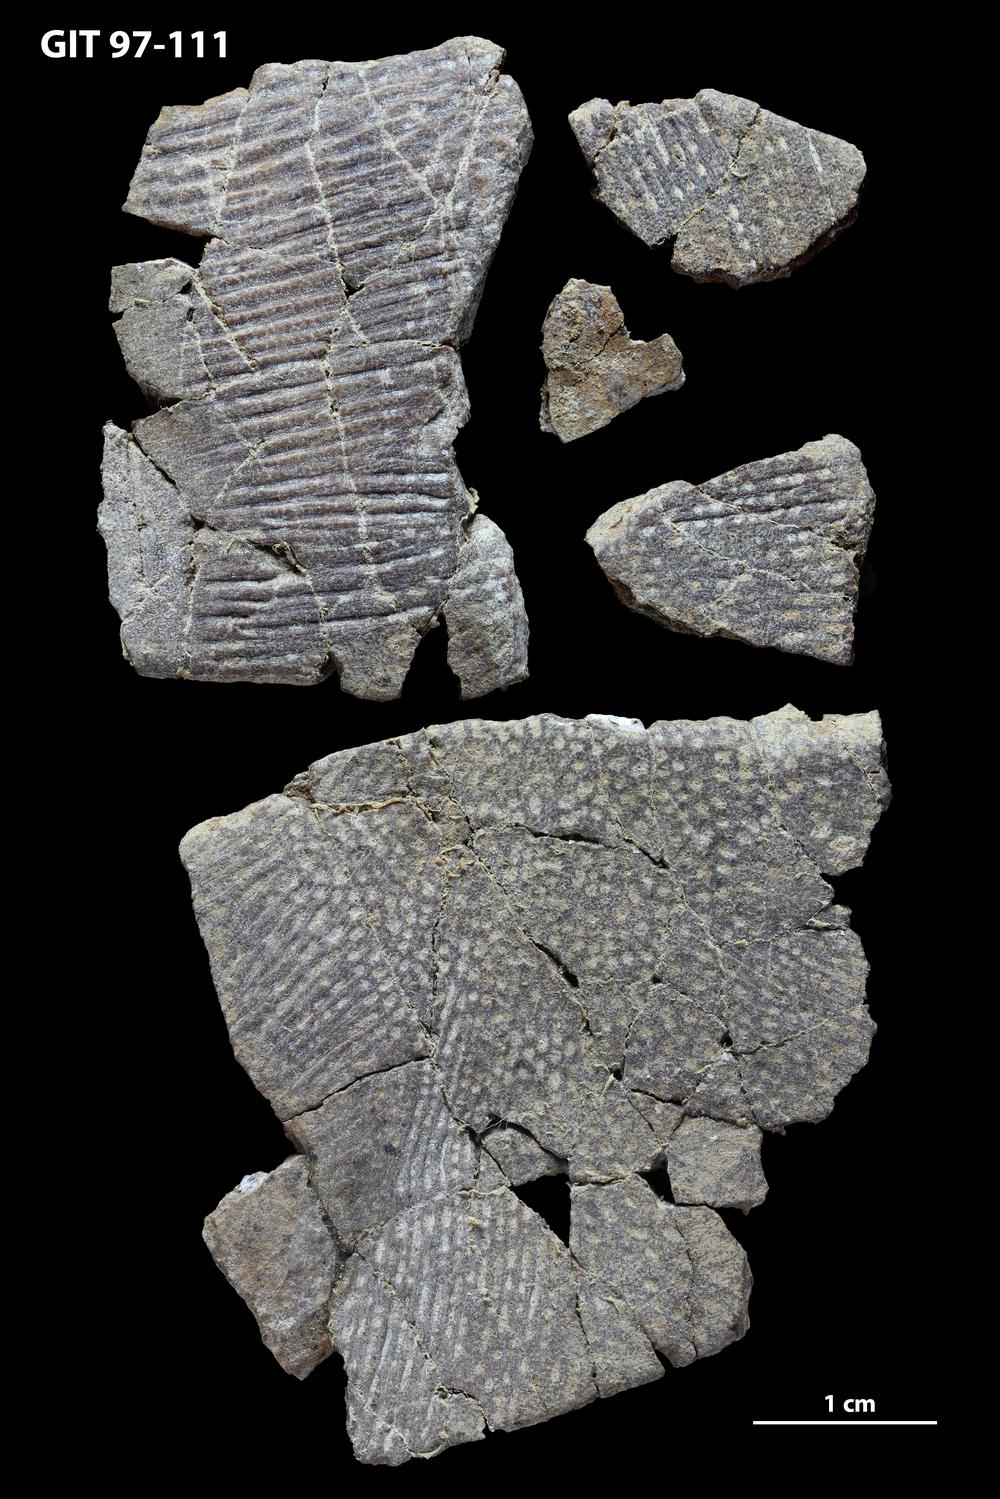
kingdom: Animalia
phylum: Chordata
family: Holonematidae
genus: Holonema
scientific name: Holonema
